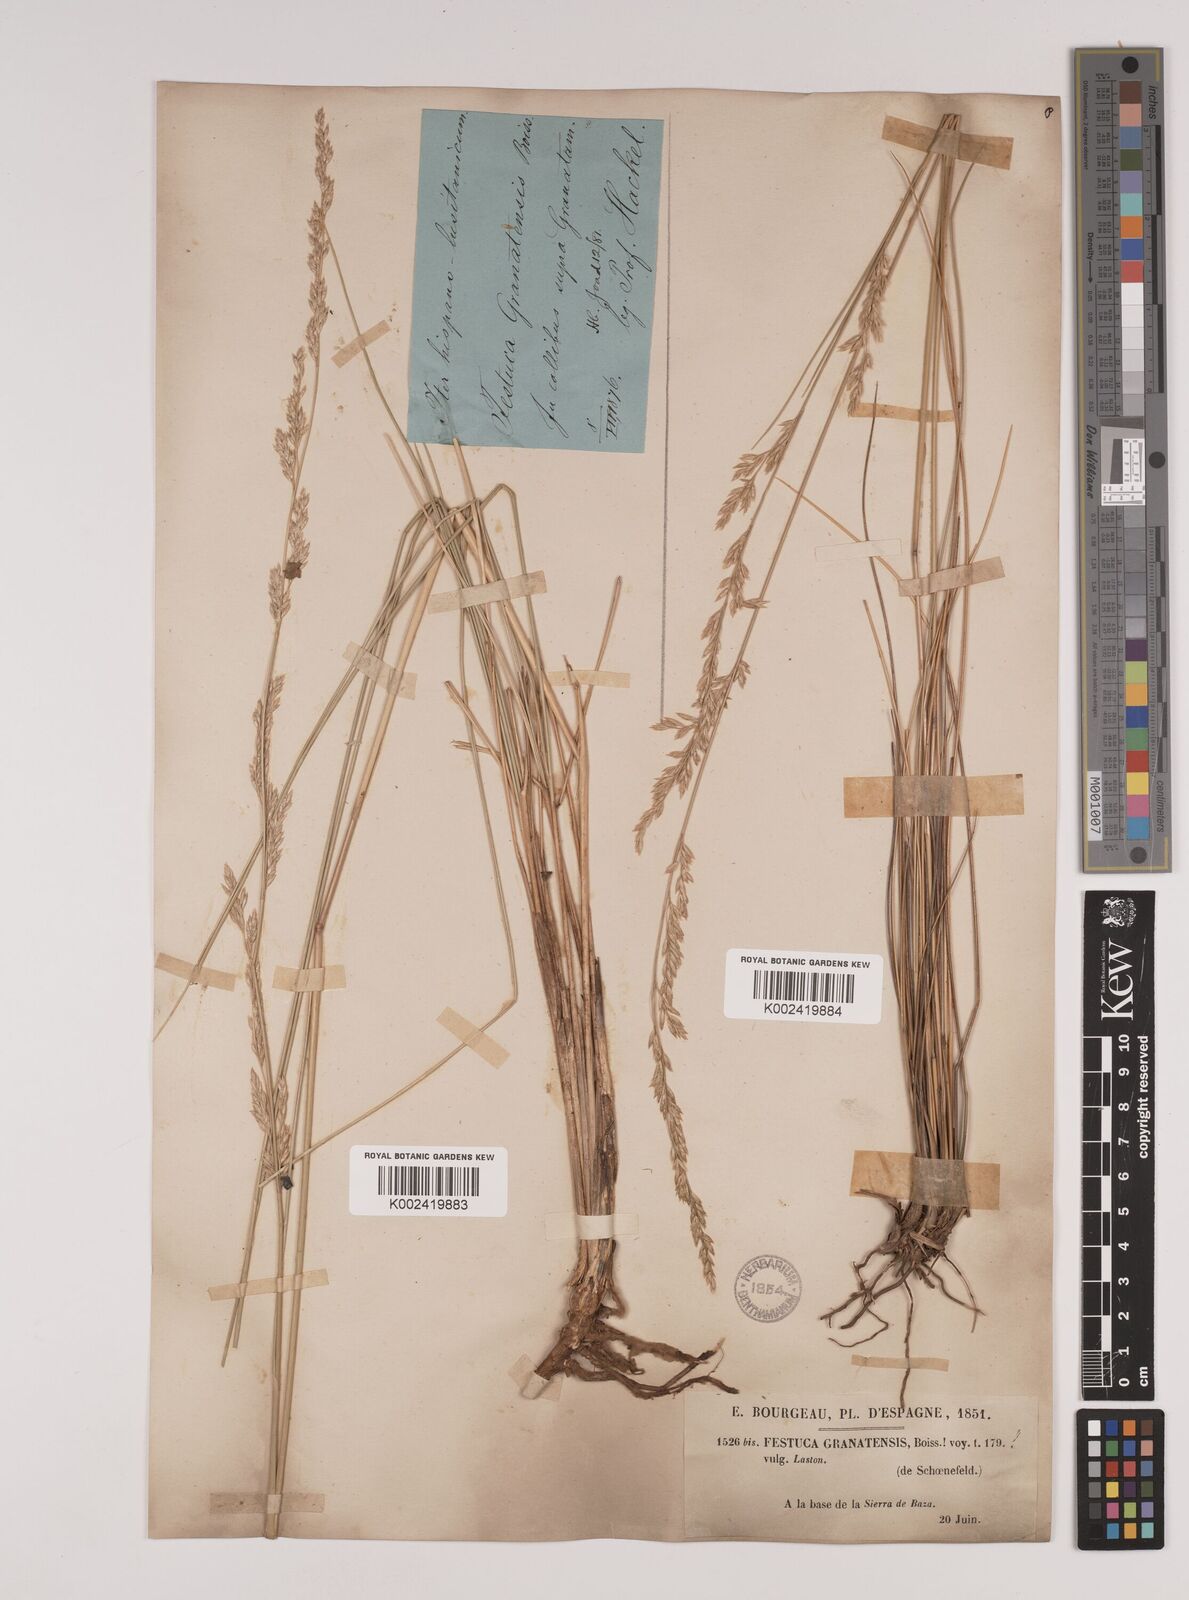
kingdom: Plantae
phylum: Tracheophyta
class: Liliopsida
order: Poales
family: Poaceae
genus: Festuca
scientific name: Festuca scariosa
